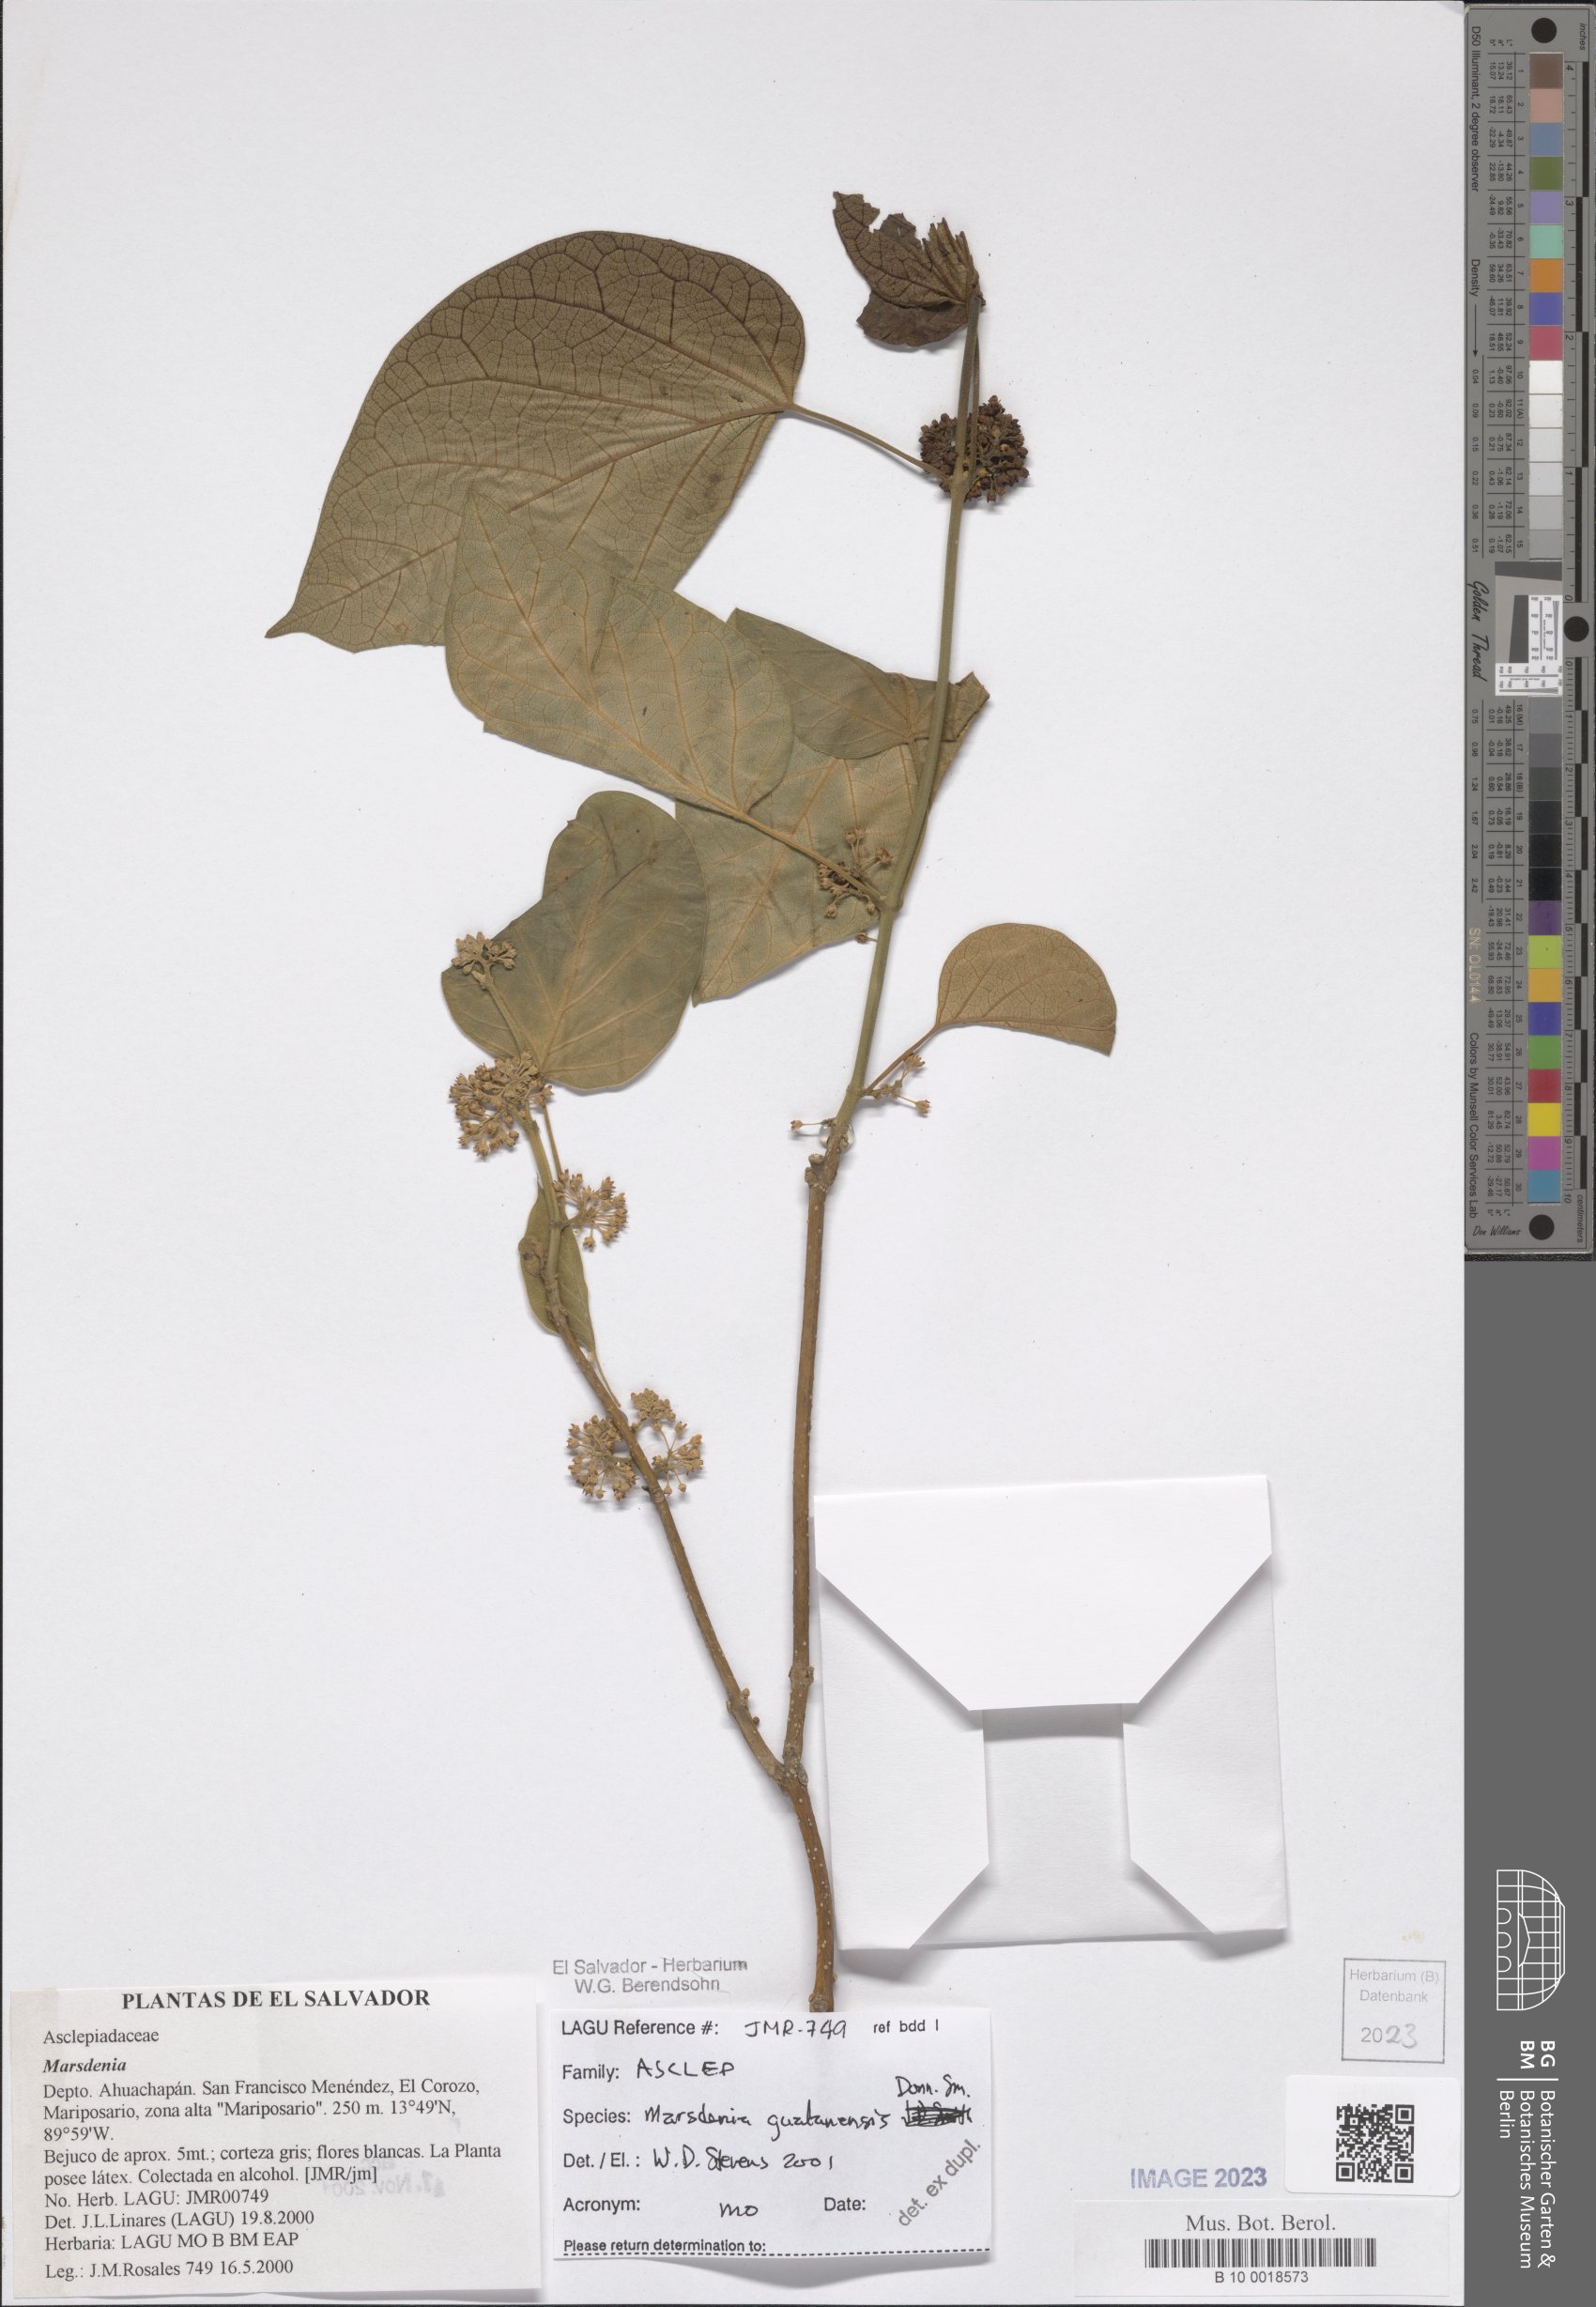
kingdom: Plantae
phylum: Tracheophyta
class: Magnoliopsida
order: Gentianales
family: Apocynaceae
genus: Ruehssia
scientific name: Ruehssia gualanensis
